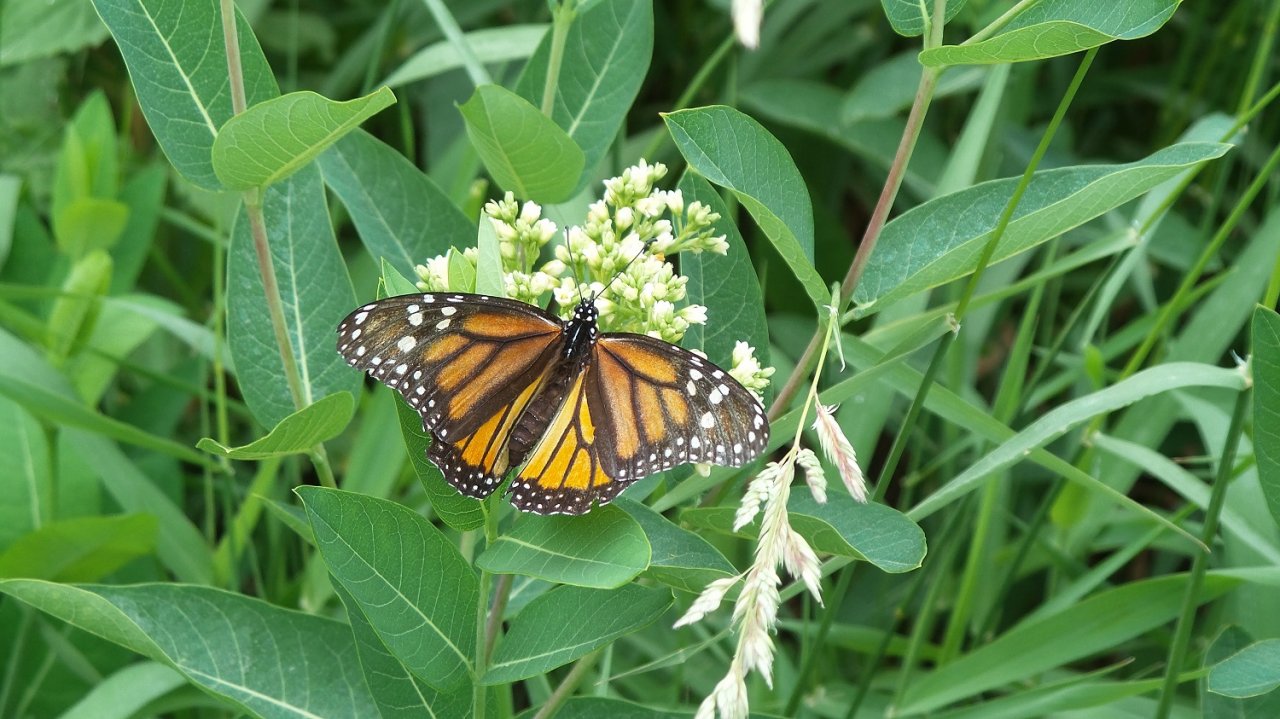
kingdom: Animalia
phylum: Arthropoda
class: Insecta
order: Lepidoptera
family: Nymphalidae
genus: Danaus
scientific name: Danaus plexippus
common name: Monarch
